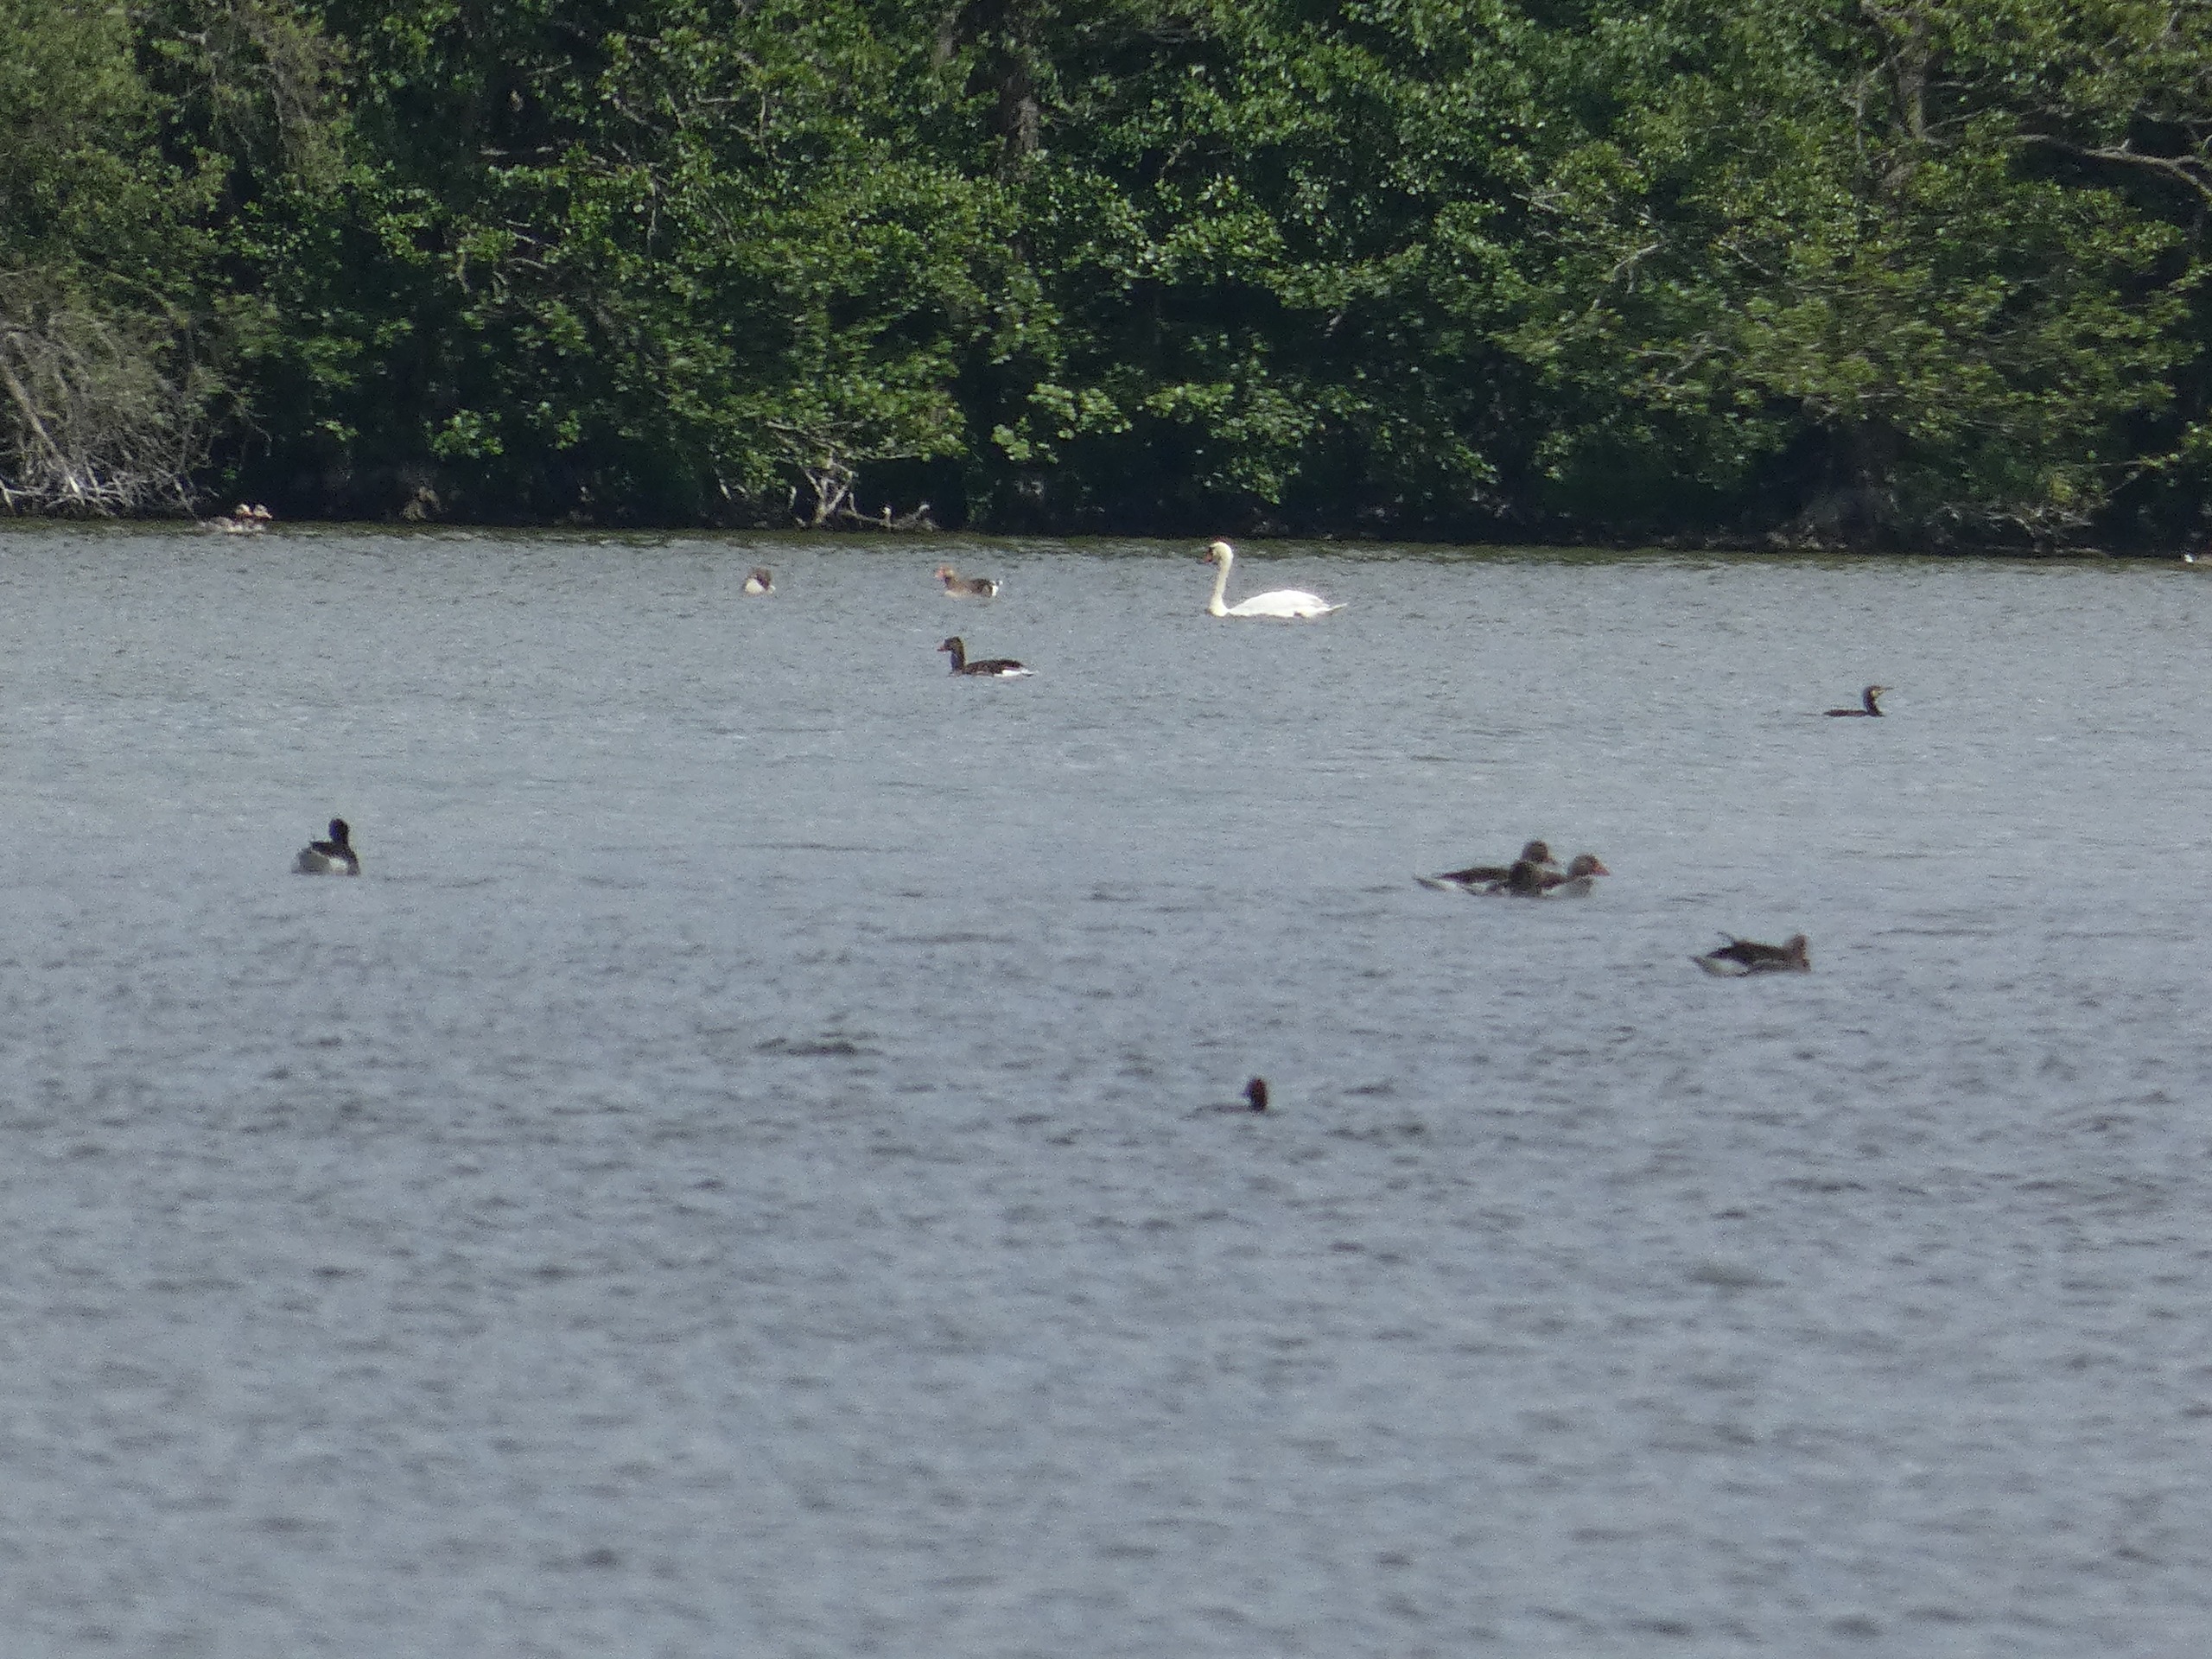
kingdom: Animalia
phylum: Chordata
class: Aves
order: Anseriformes
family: Anatidae
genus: Cygnus
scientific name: Cygnus olor
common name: Knopsvane
